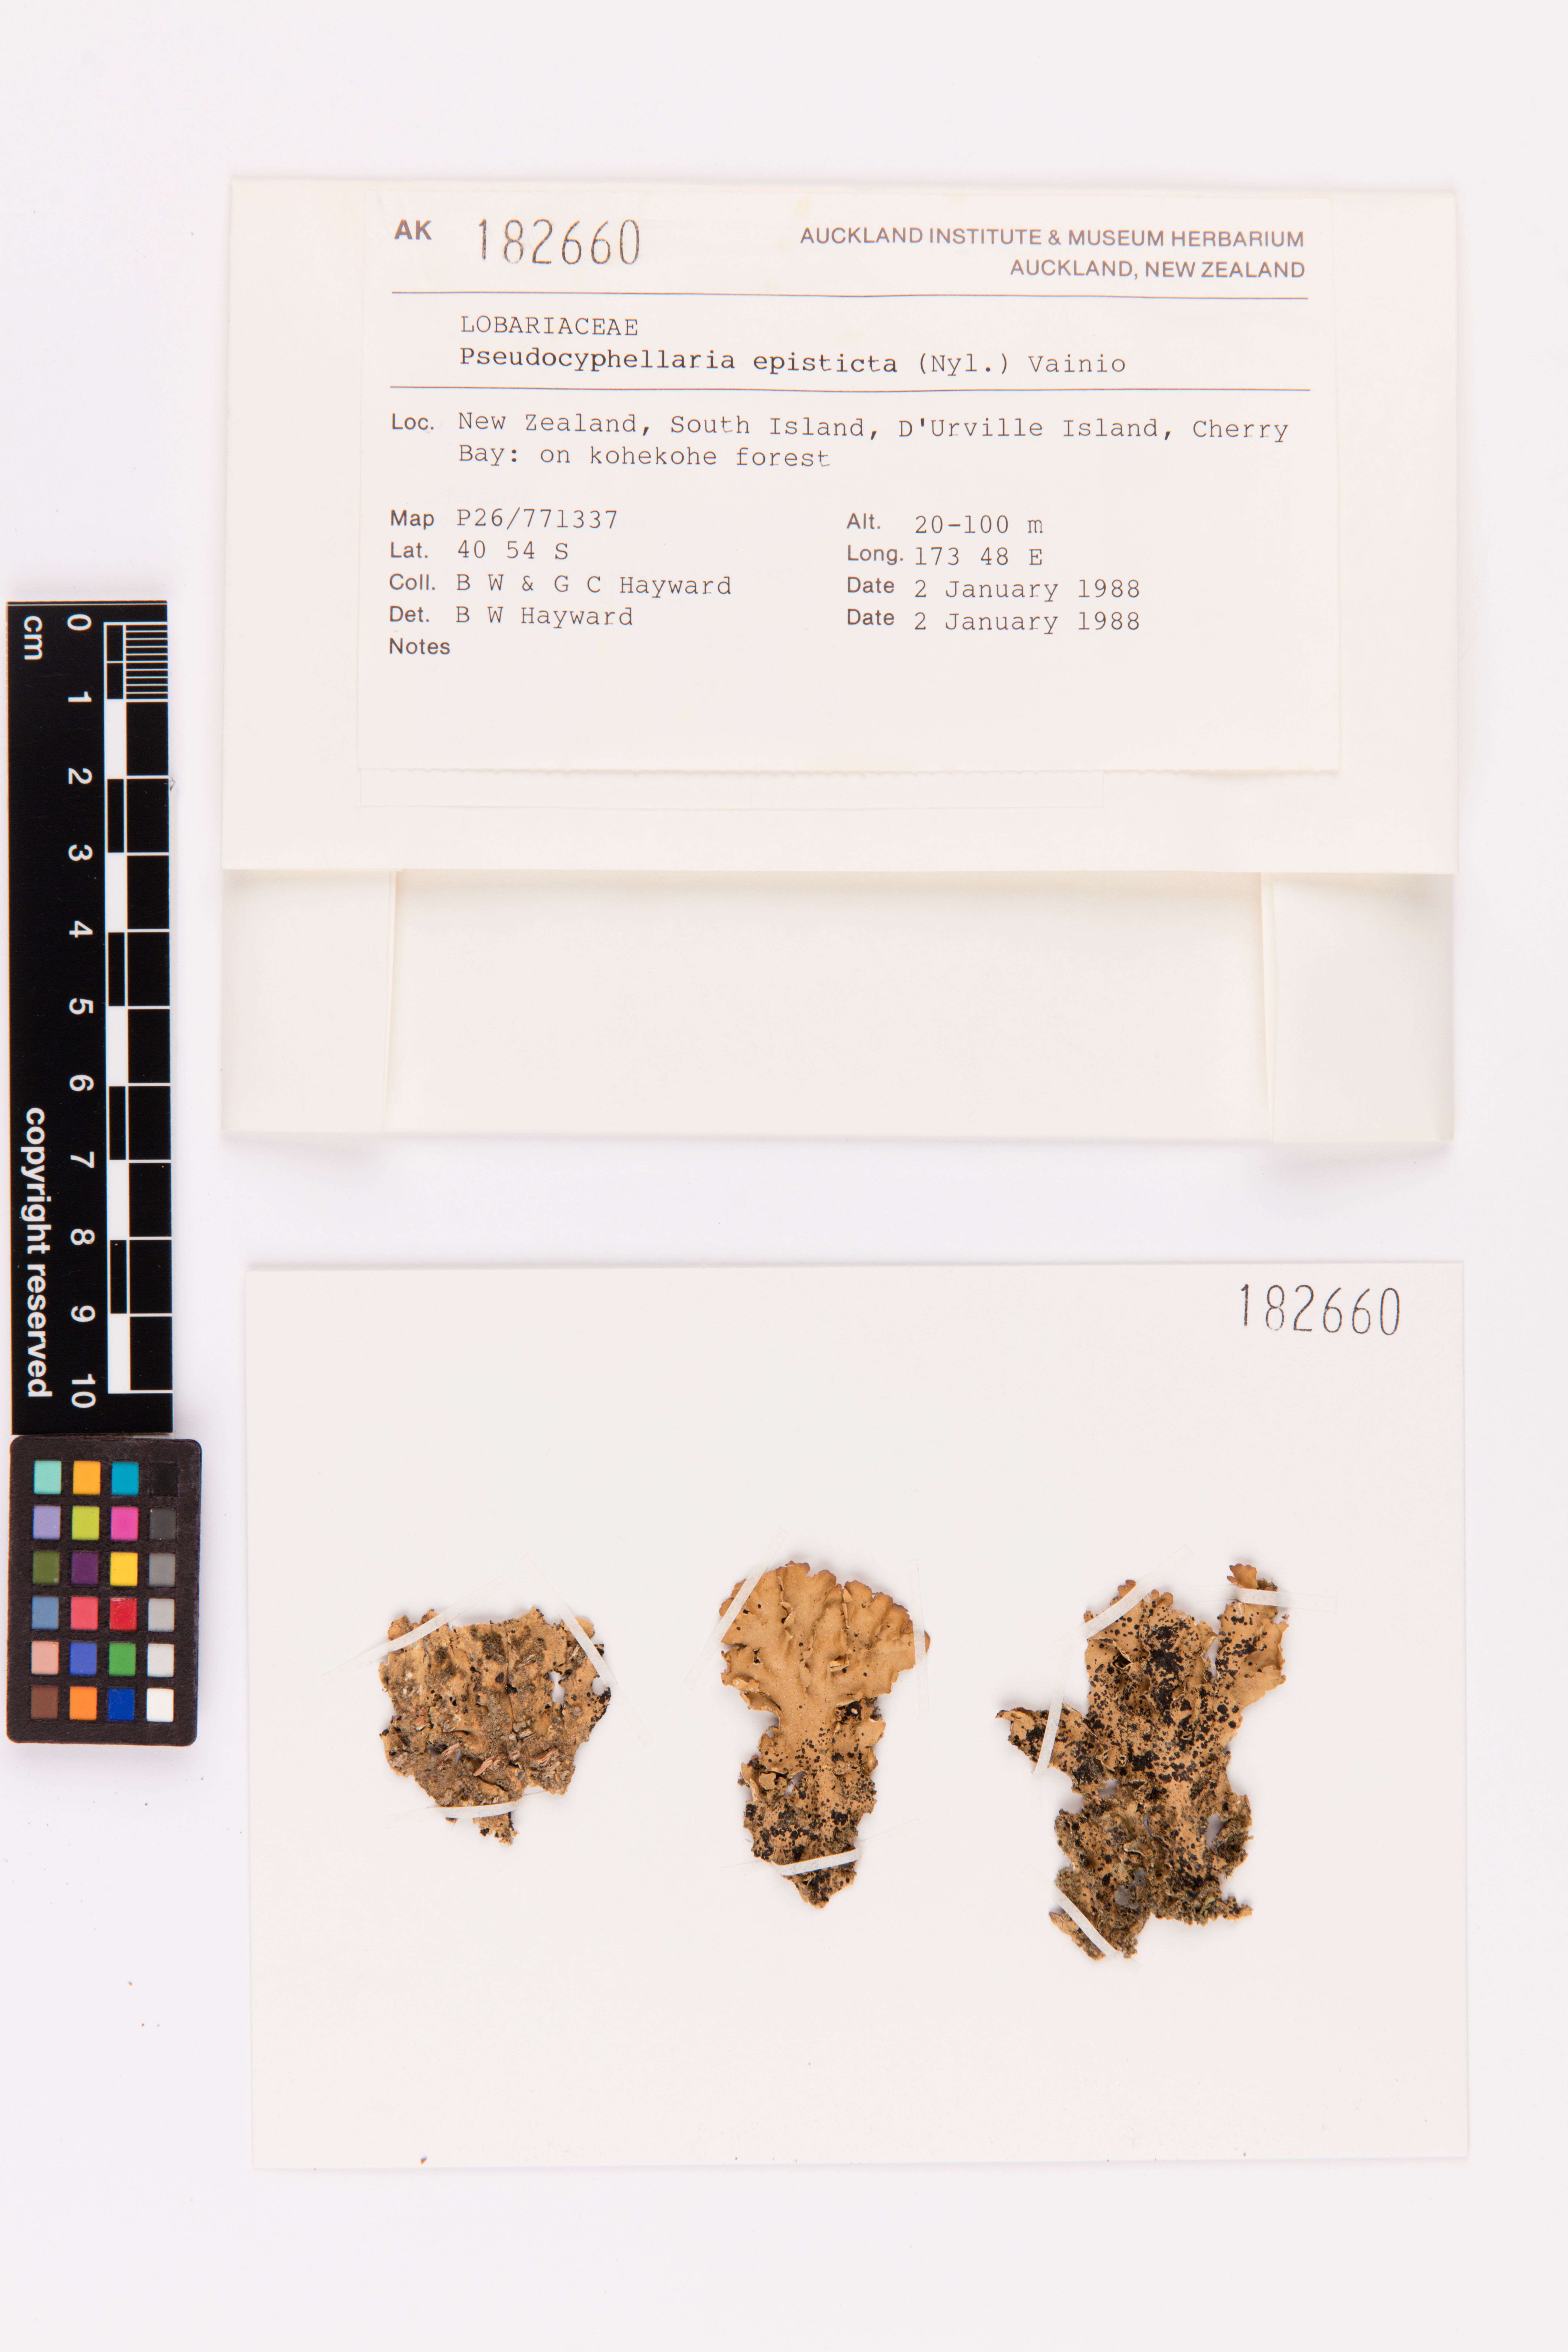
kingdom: Fungi
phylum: Ascomycota
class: Lecanoromycetes
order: Peltigerales
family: Lobariaceae
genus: Pseudocyphellaria
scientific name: Pseudocyphellaria episticta
